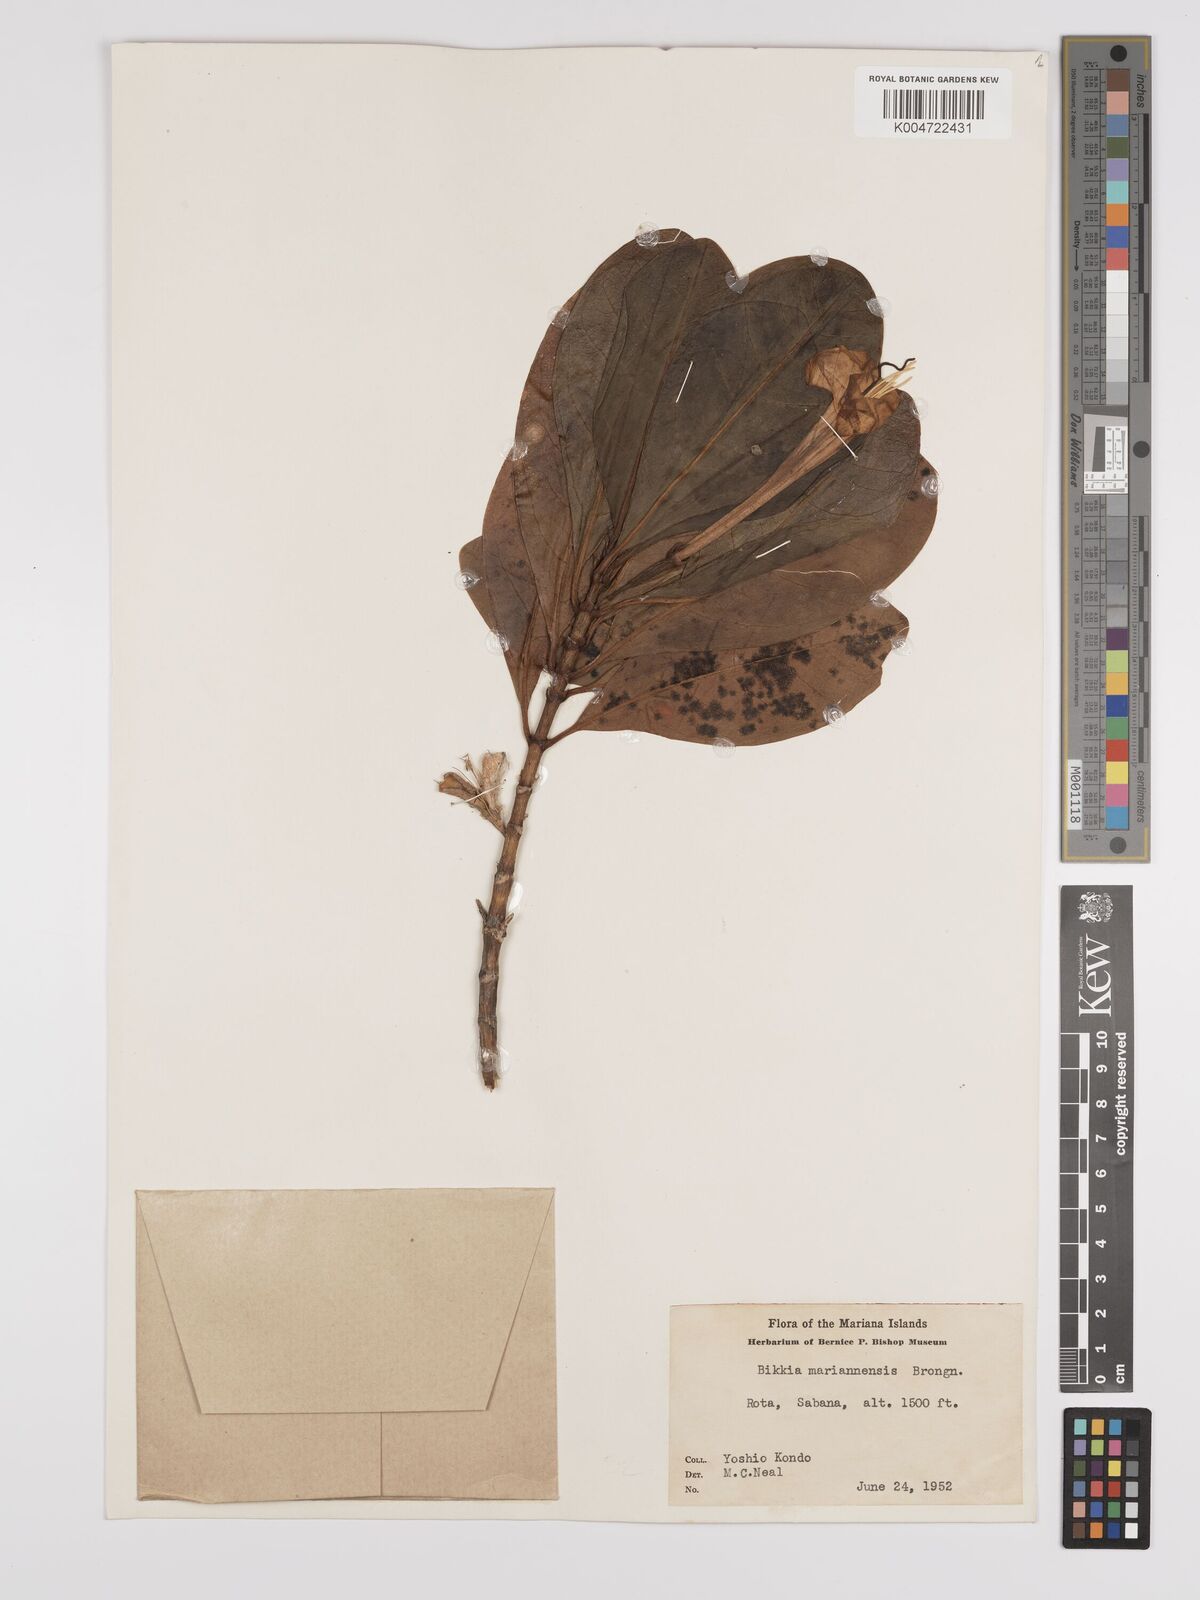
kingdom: Plantae
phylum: Tracheophyta
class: Magnoliopsida
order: Gentianales
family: Rubiaceae
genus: Bikkia
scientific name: Bikkia
